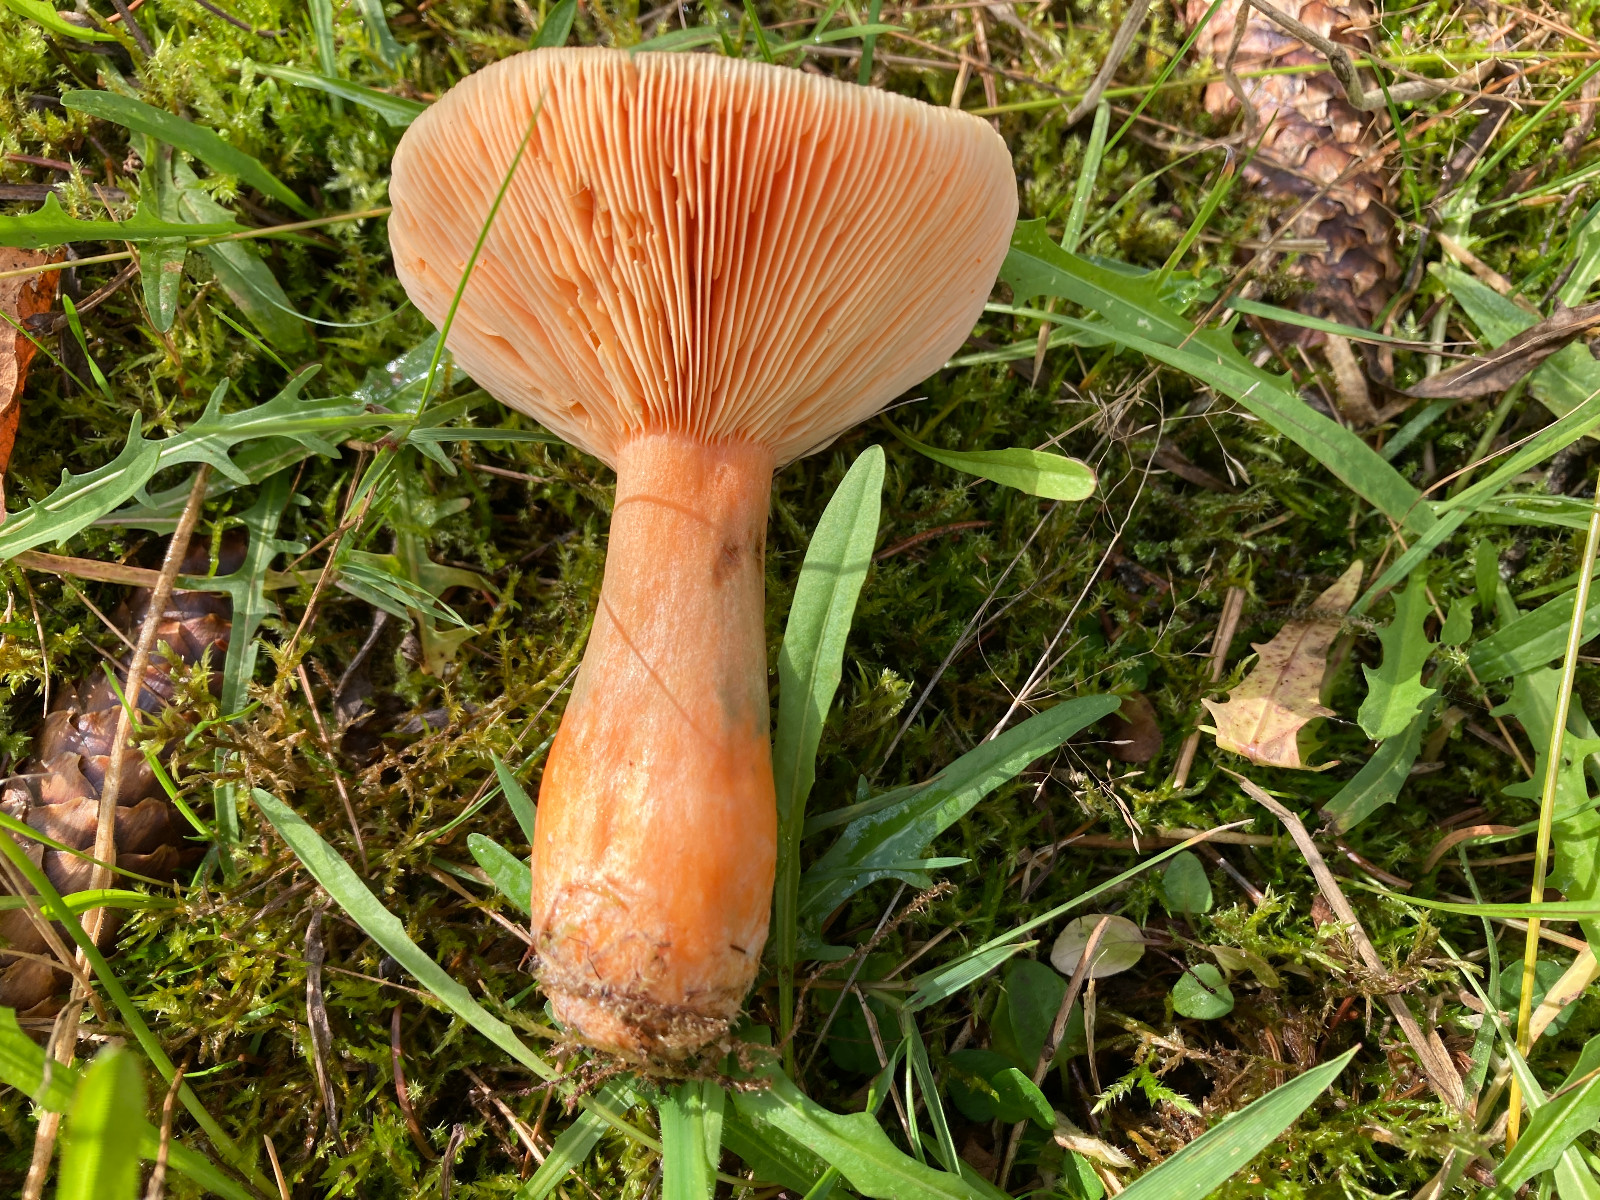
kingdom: Fungi
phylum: Basidiomycota
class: Agaricomycetes
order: Russulales
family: Russulaceae
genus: Lactarius
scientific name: Lactarius deterrimus
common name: gran-mælkehat
